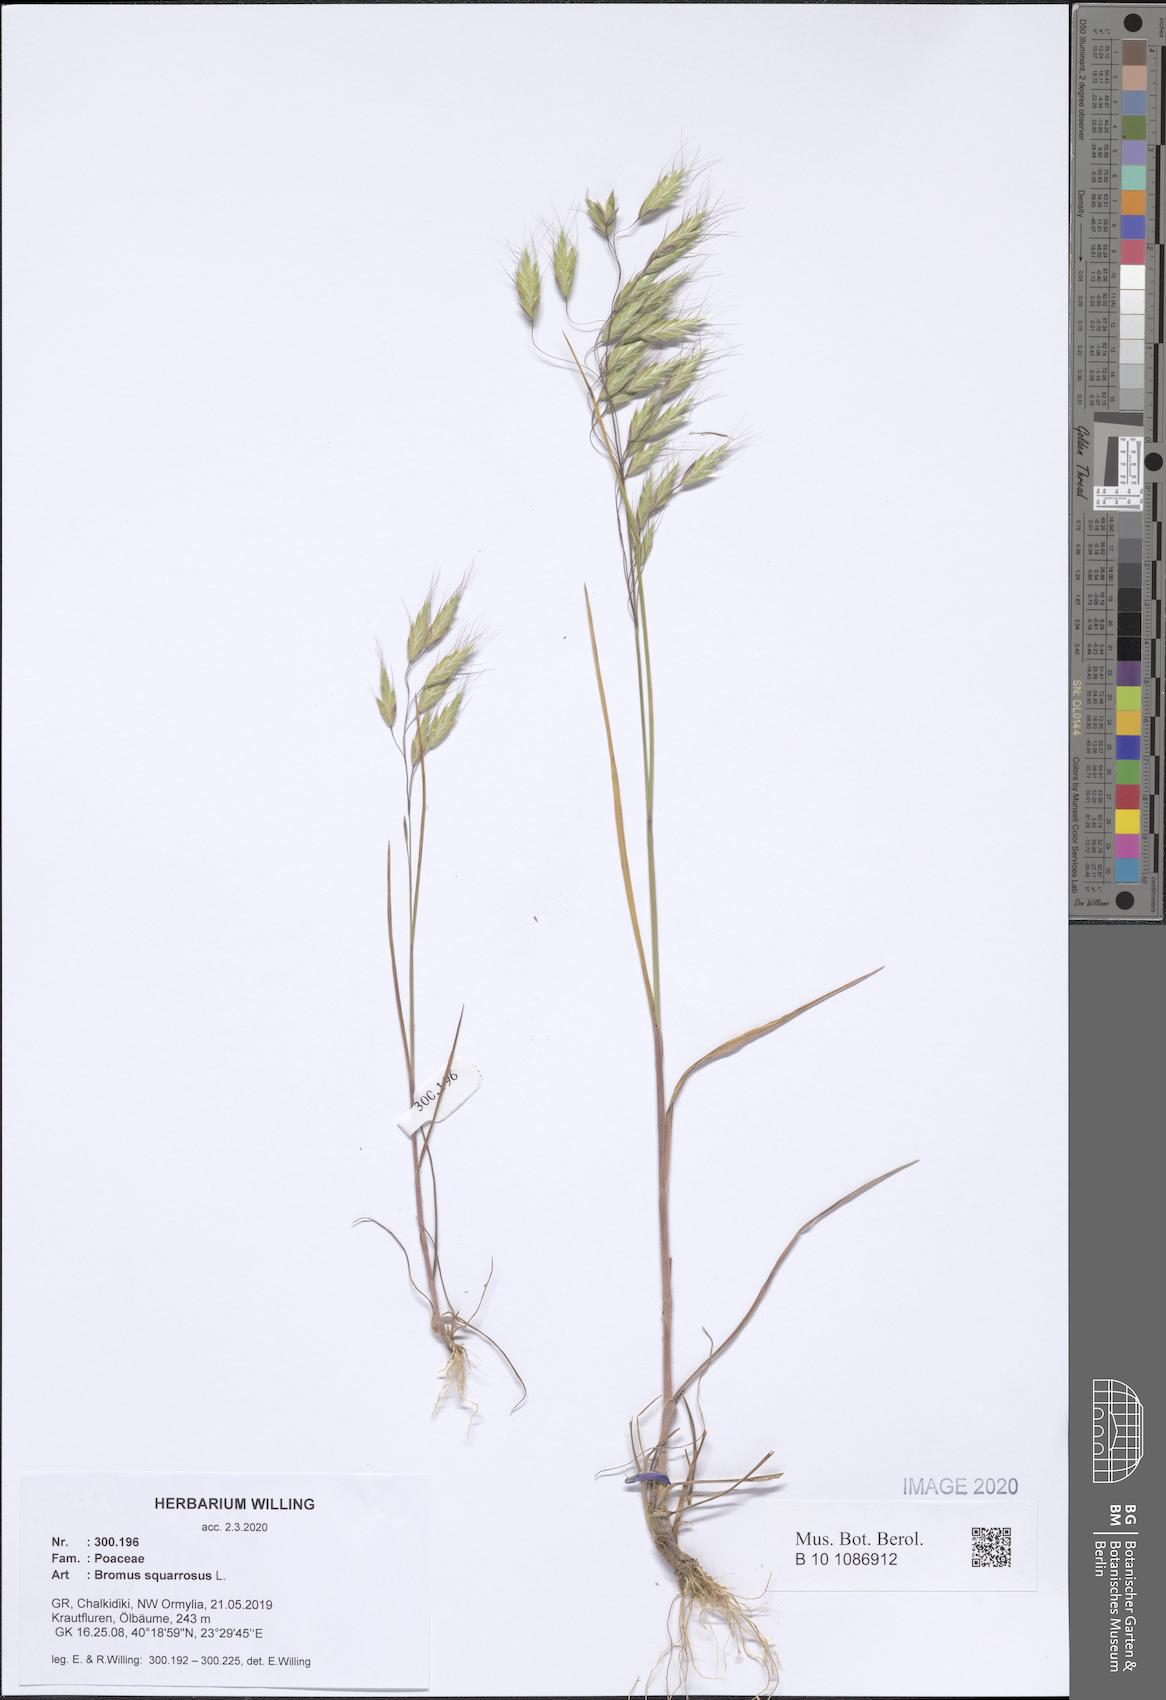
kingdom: Plantae
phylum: Tracheophyta
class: Liliopsida
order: Poales
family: Poaceae
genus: Bromus
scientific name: Bromus squarrosus
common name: Corn brome
